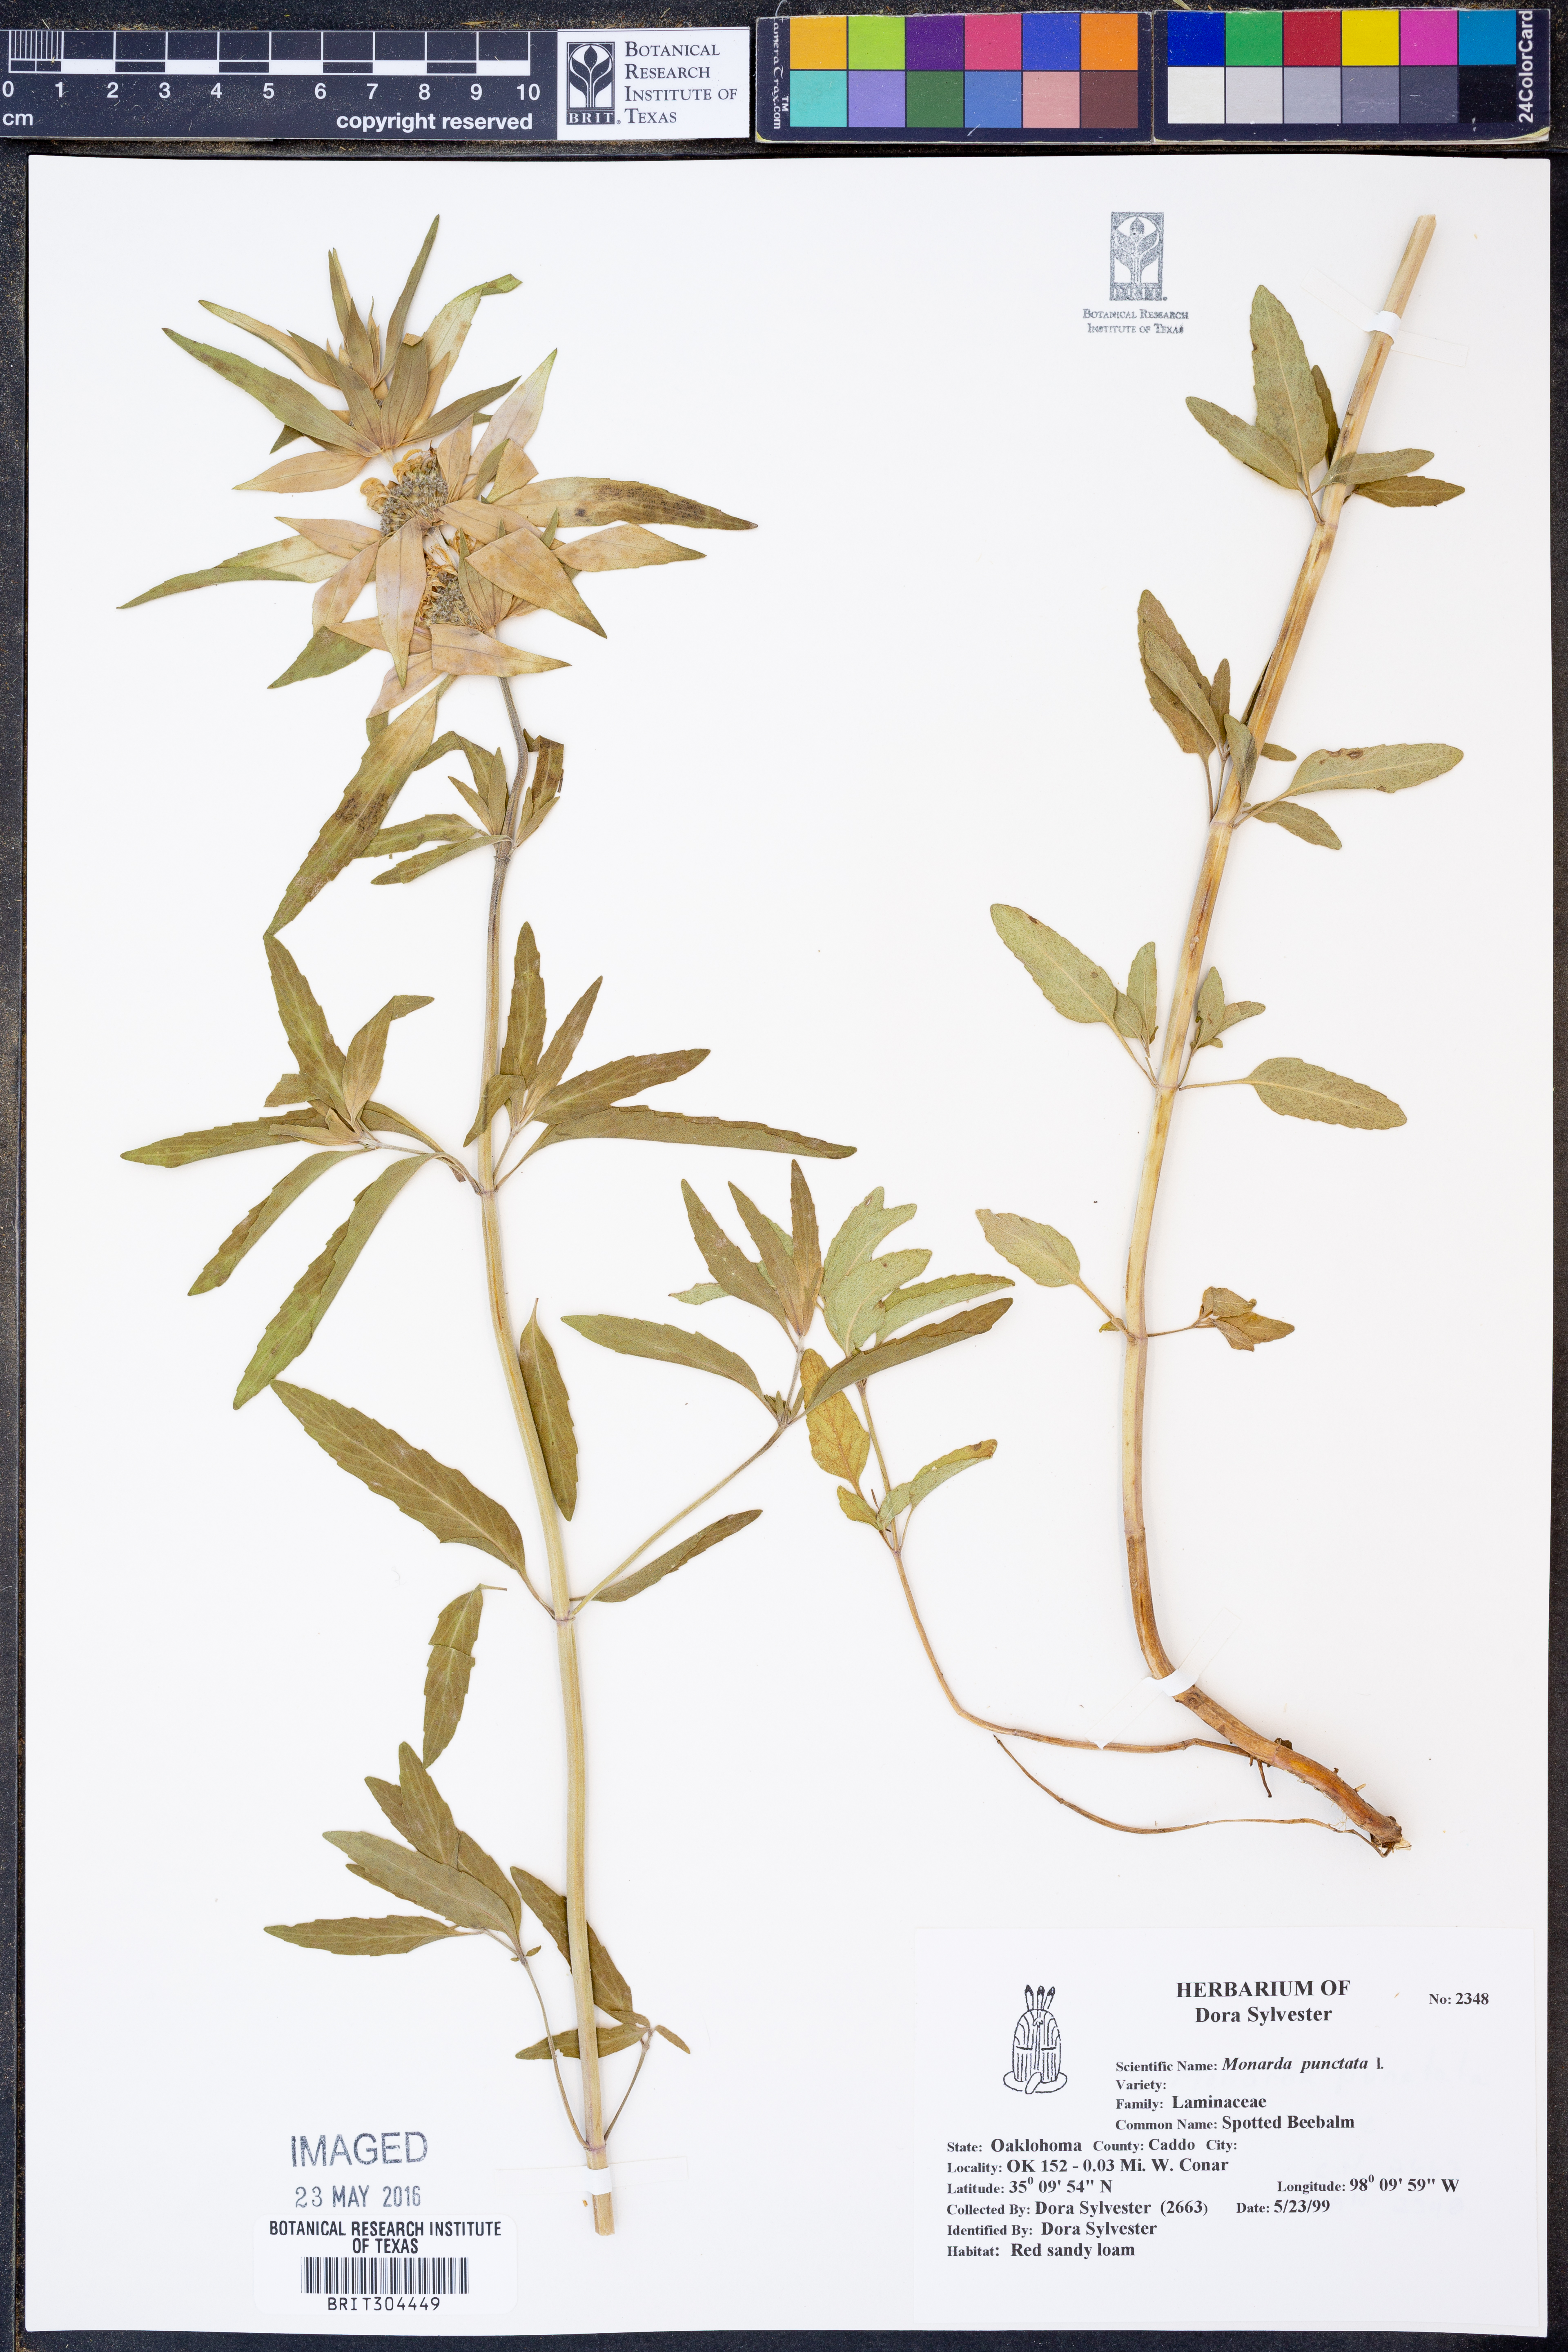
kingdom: Plantae
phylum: Tracheophyta
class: Magnoliopsida
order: Lamiales
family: Lamiaceae
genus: Monarda
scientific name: Monarda punctata
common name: Dotted monarda
